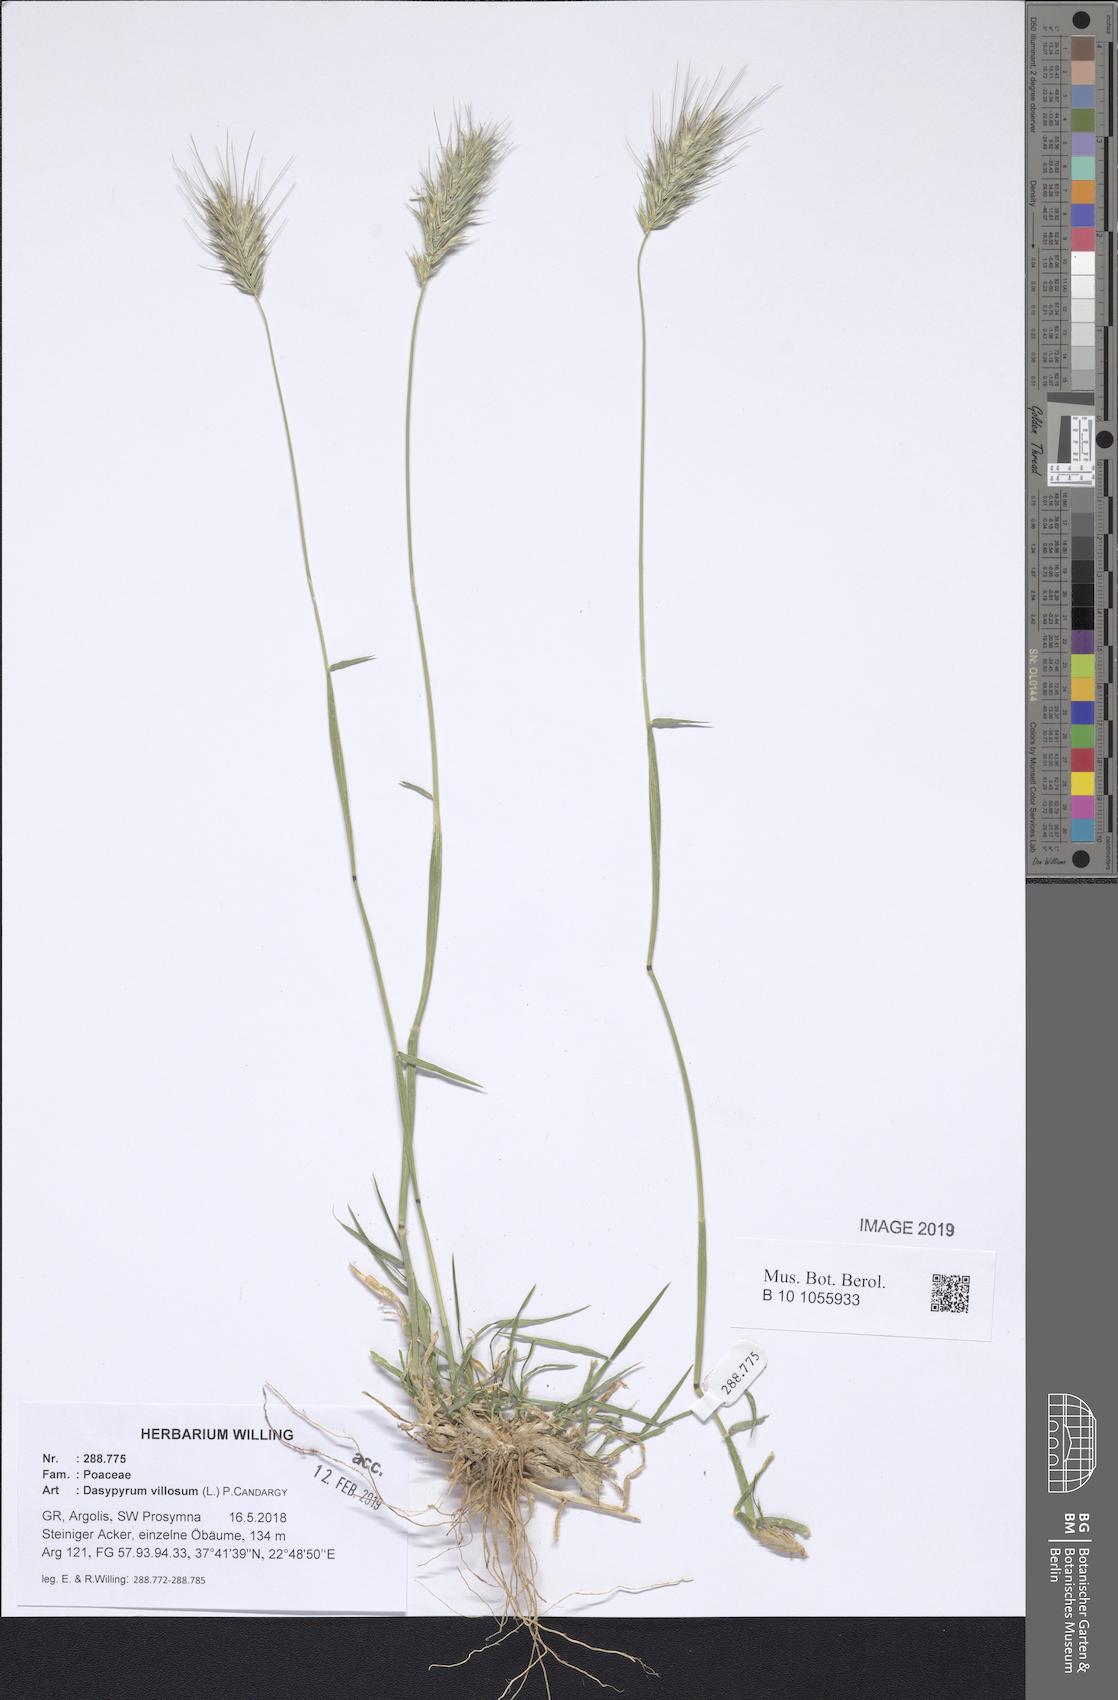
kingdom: Plantae
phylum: Tracheophyta
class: Liliopsida
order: Poales
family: Poaceae
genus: Dasypyrum
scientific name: Dasypyrum villosum
